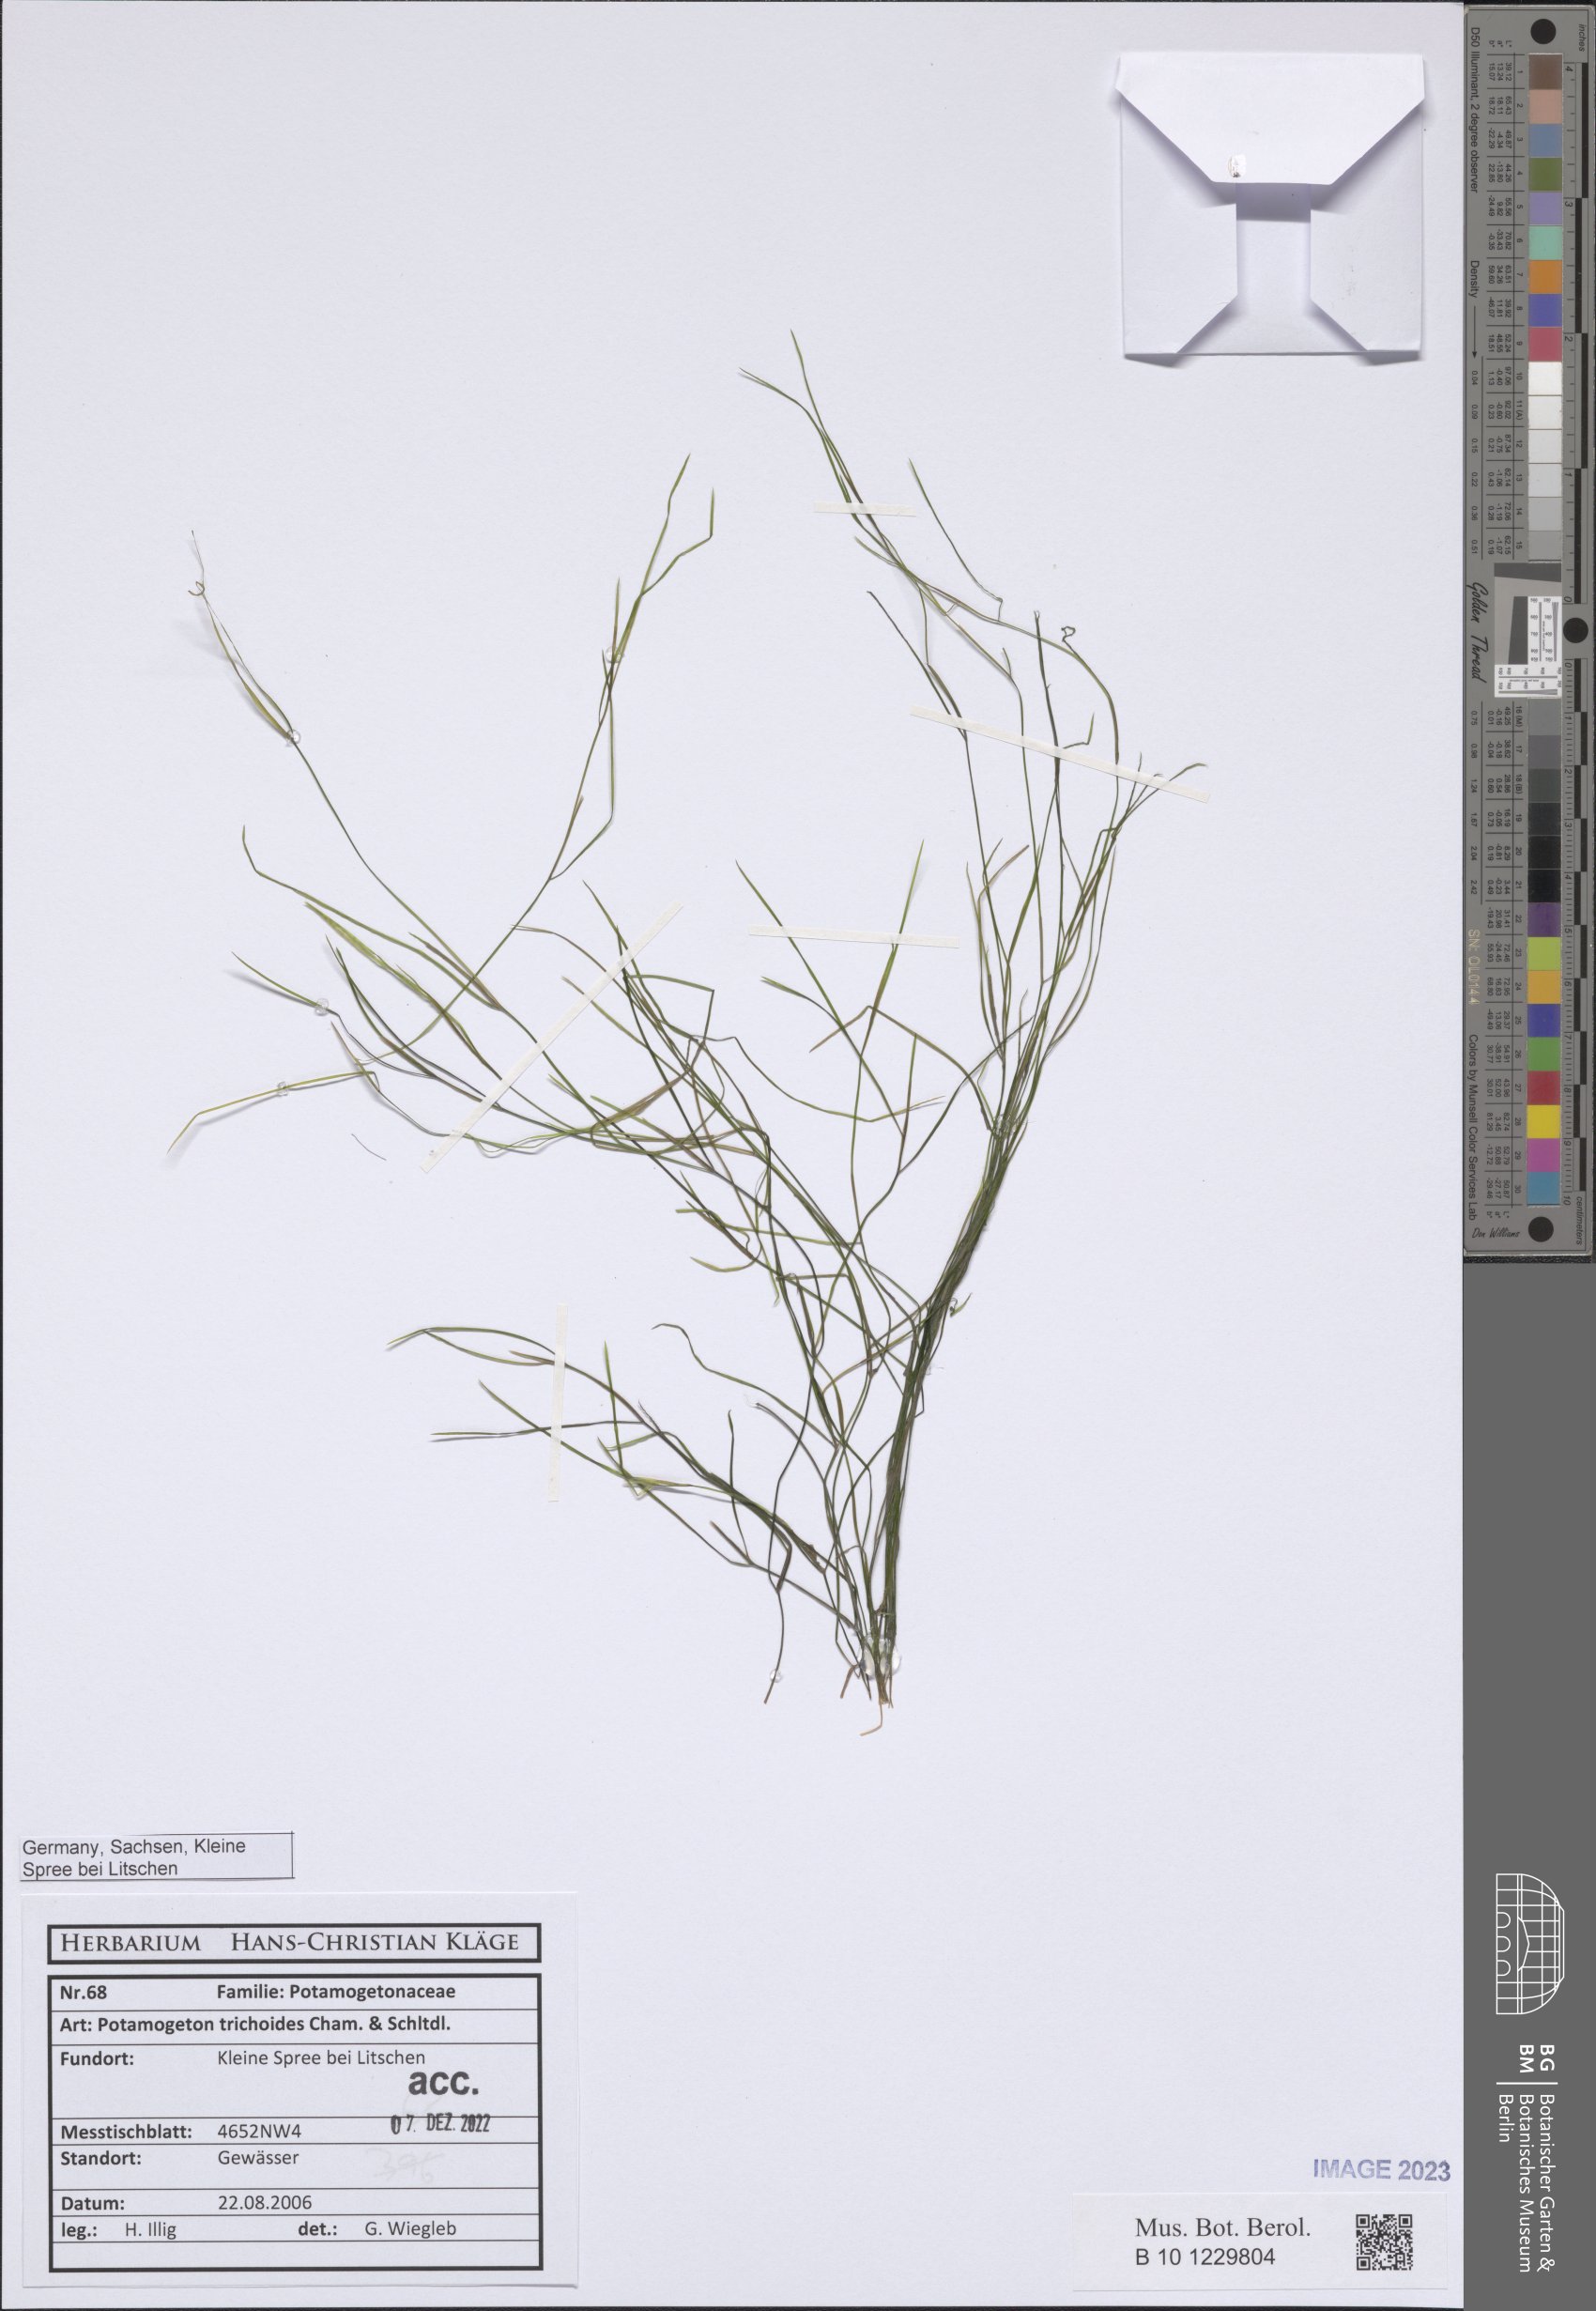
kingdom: Plantae
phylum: Tracheophyta
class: Liliopsida
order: Alismatales
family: Potamogetonaceae
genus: Potamogeton
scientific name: Potamogeton trichoides
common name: Hairlike pondweed
